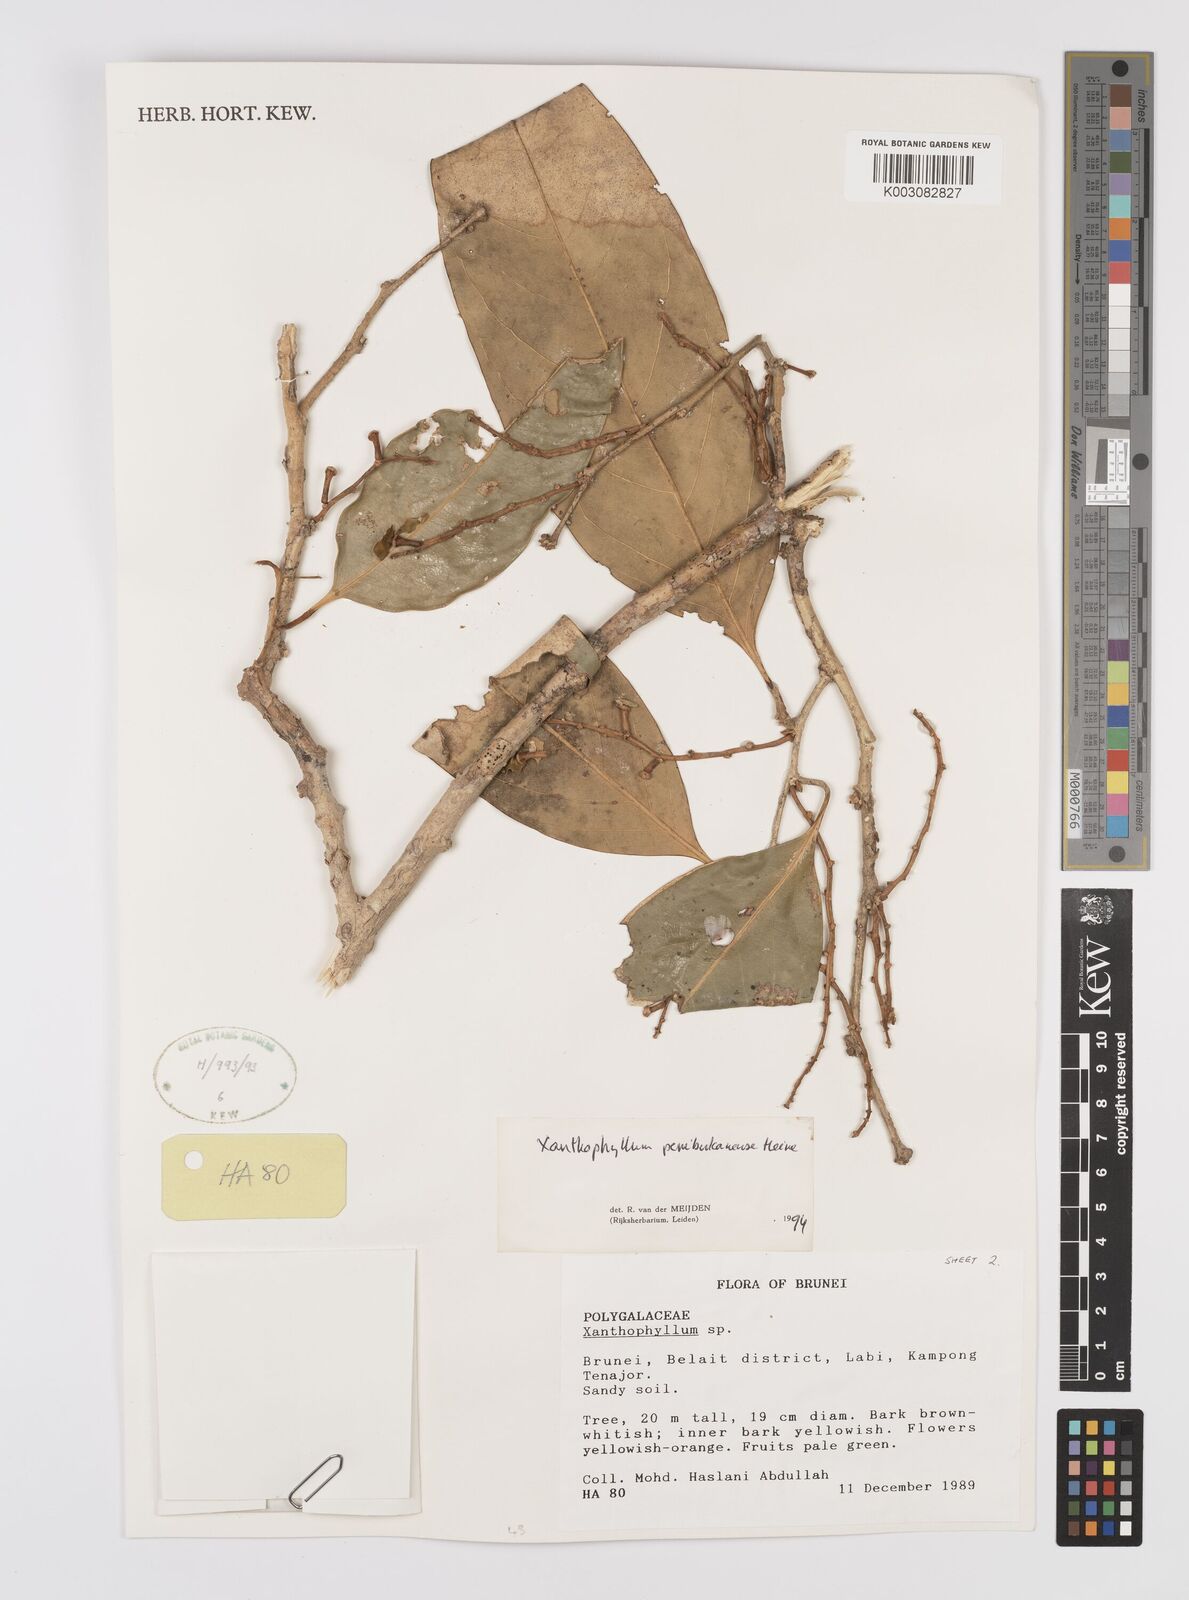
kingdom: Plantae
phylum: Tracheophyta
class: Magnoliopsida
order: Fabales
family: Polygalaceae
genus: Xanthophyllum
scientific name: Xanthophyllum penibukanense
